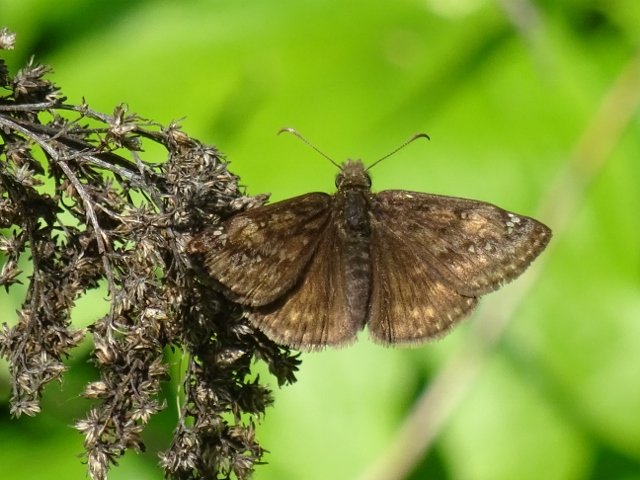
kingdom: Animalia
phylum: Arthropoda
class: Insecta
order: Lepidoptera
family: Hesperiidae
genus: Gesta
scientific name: Gesta
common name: Juvenal's Duskywing
